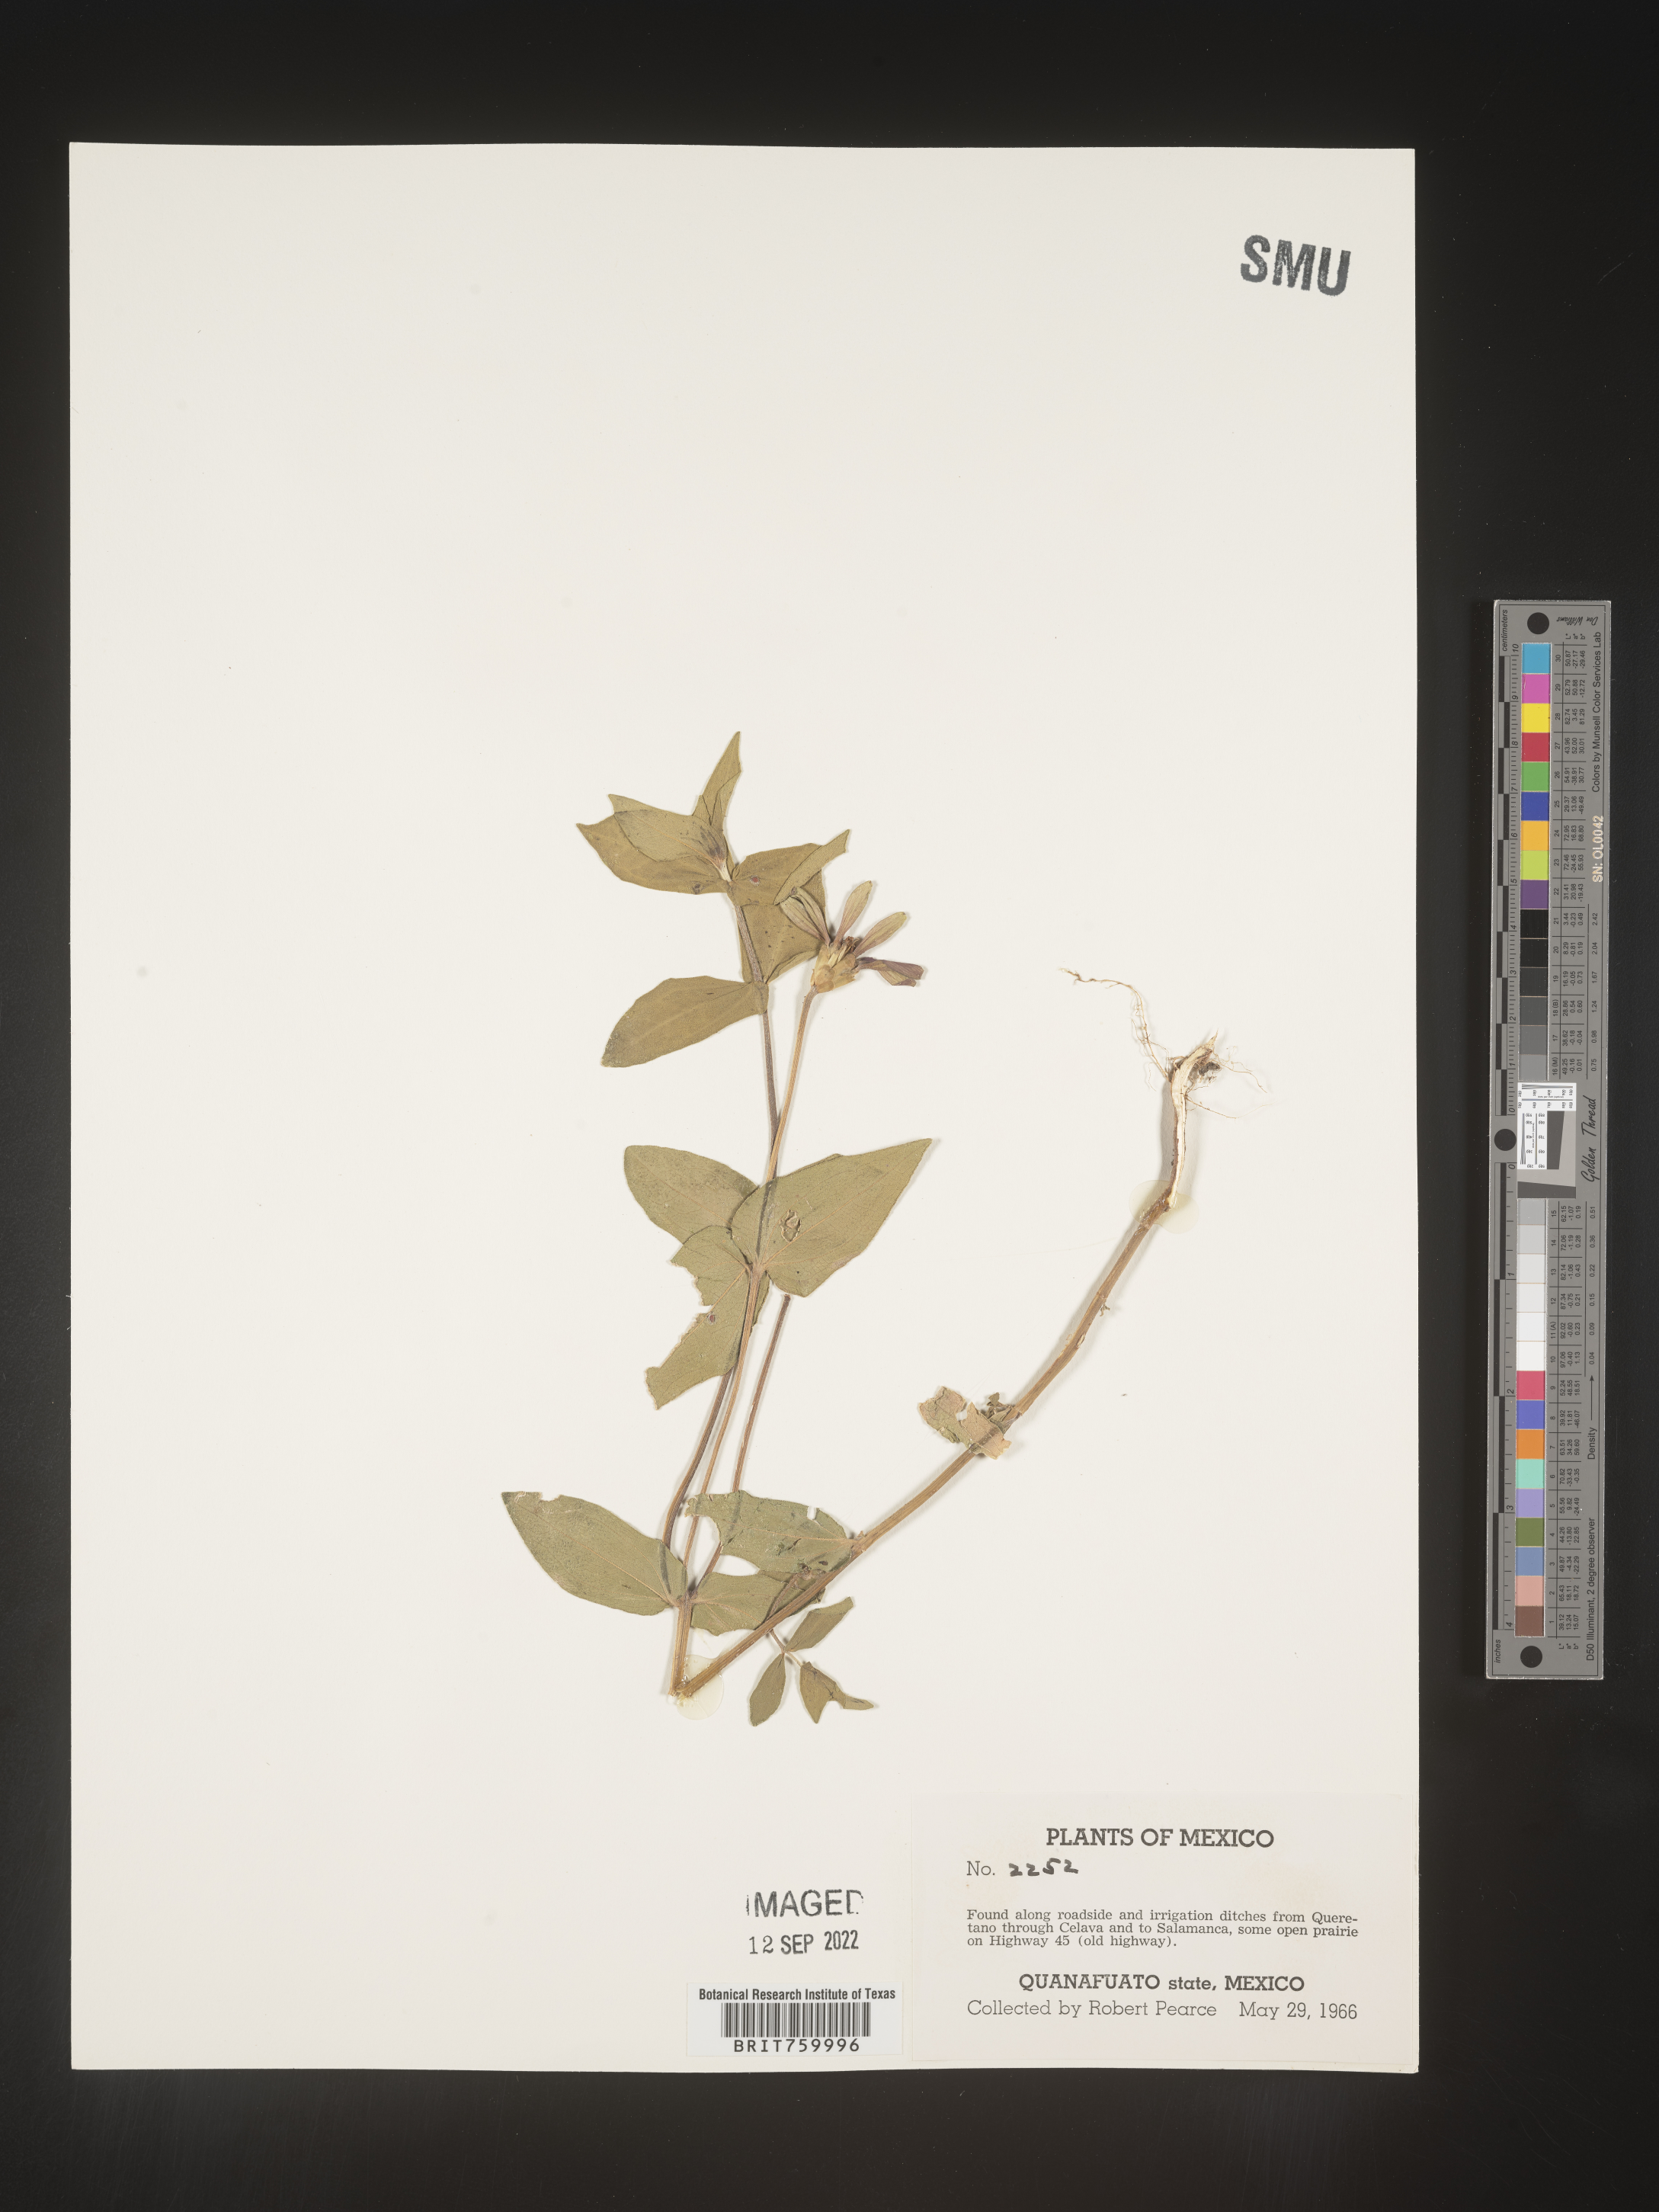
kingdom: Plantae
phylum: Tracheophyta
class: Magnoliopsida
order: Asterales
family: Asteraceae
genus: Zinnia
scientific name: Zinnia
